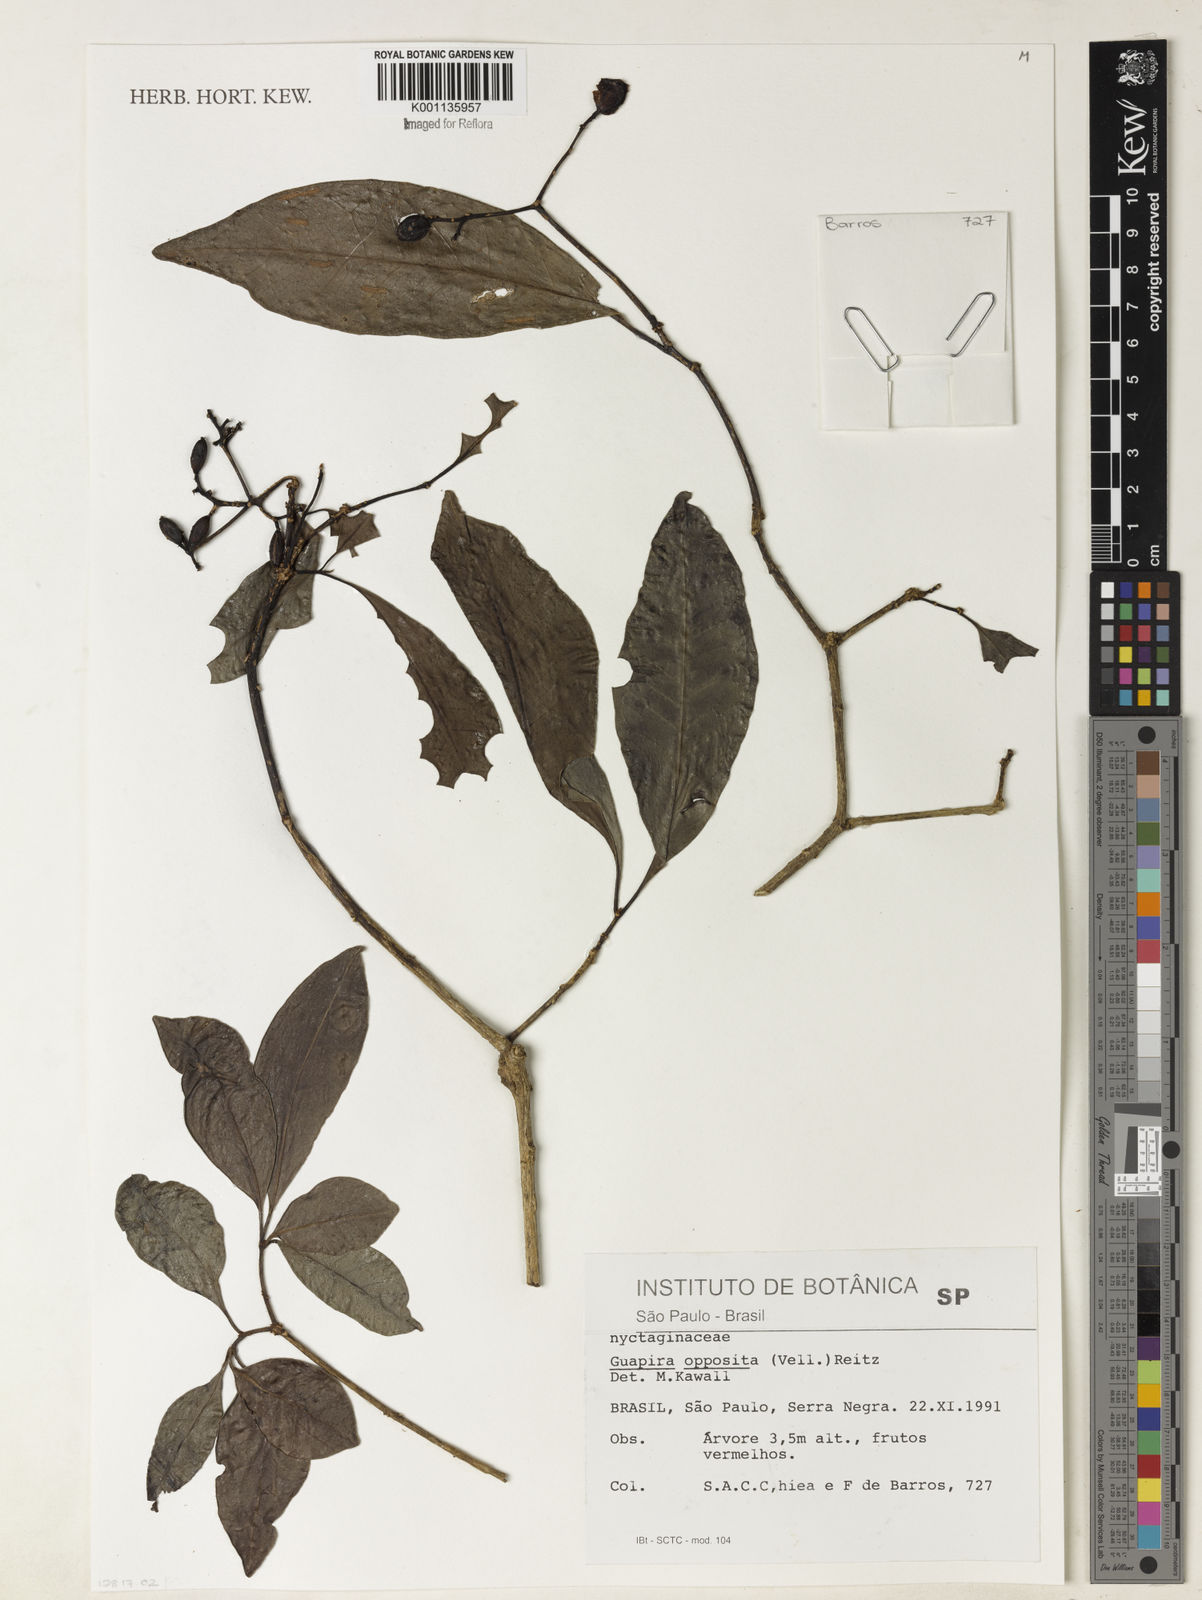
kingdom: Plantae
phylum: Tracheophyta
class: Magnoliopsida
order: Caryophyllales
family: Nyctaginaceae
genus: Guapira
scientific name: Guapira opposita
